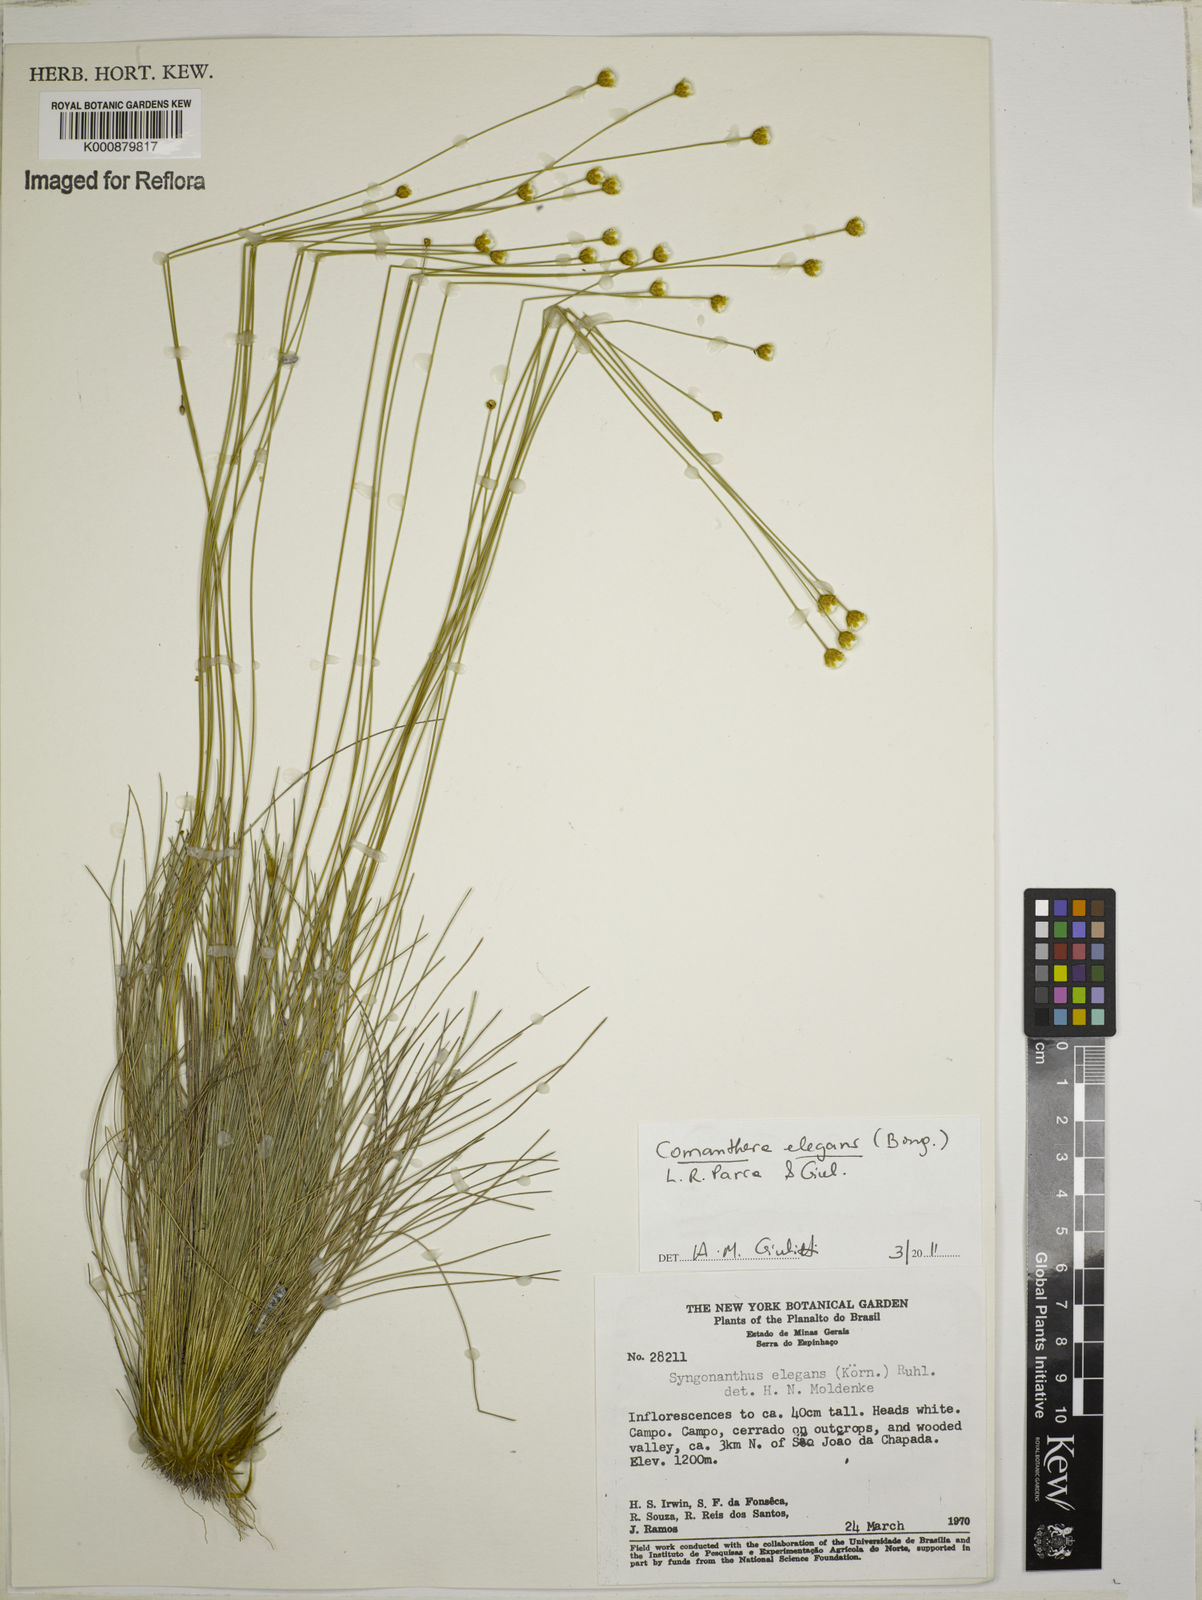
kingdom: Plantae
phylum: Tracheophyta
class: Liliopsida
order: Poales
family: Eriocaulaceae
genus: Comanthera
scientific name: Comanthera elegans
